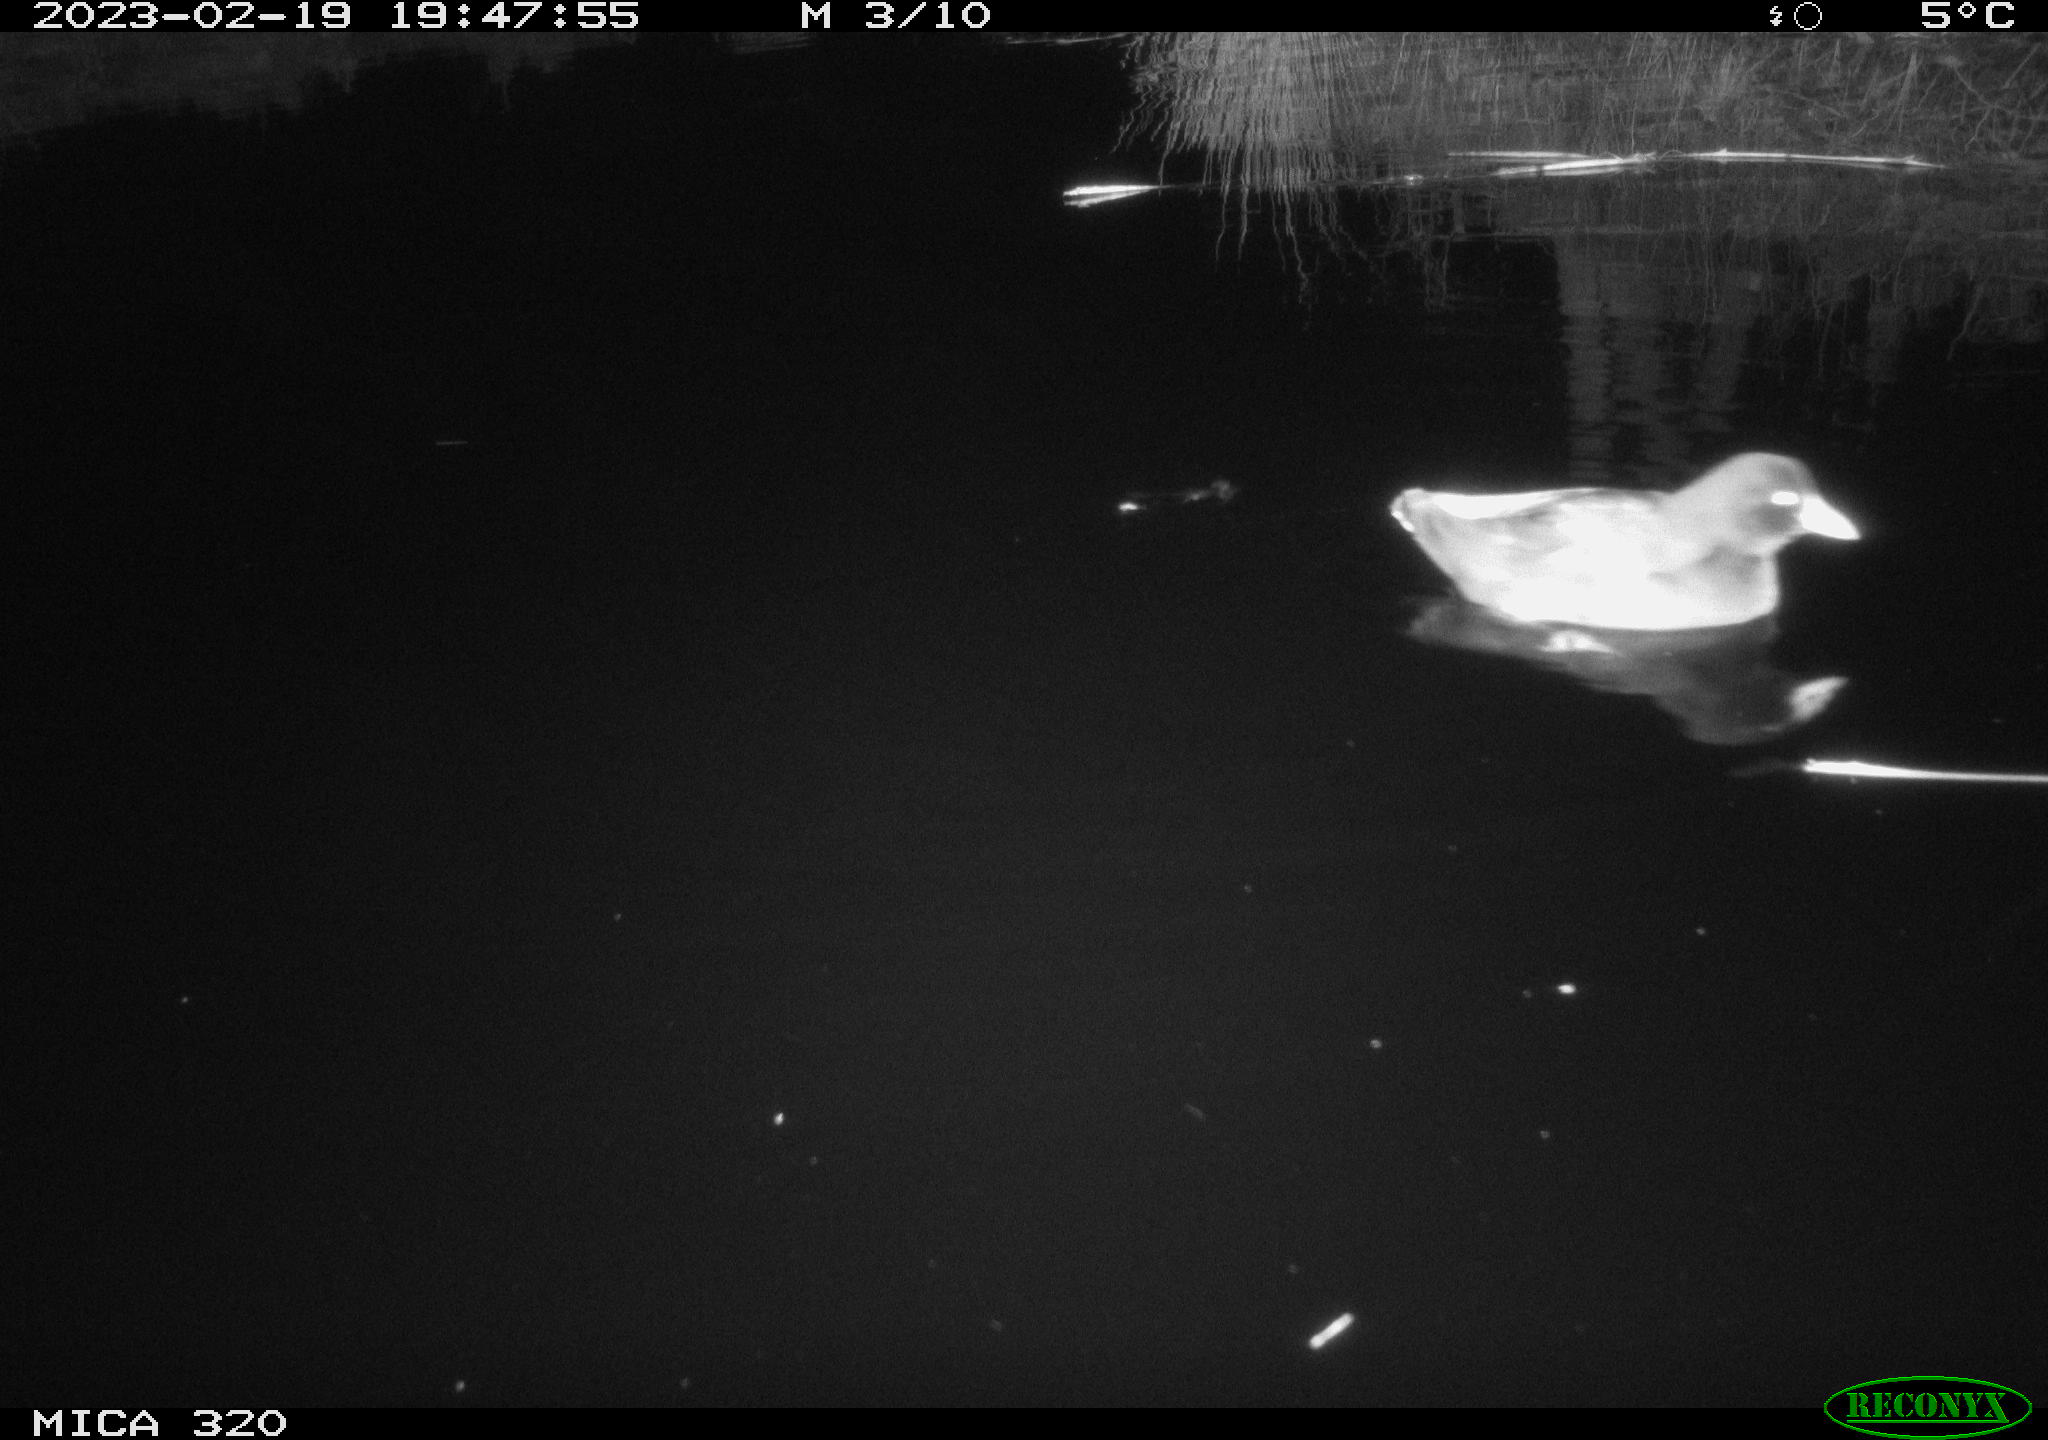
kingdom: Animalia
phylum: Chordata
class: Aves
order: Gruiformes
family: Rallidae
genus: Gallinula
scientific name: Gallinula chloropus
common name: Common moorhen
